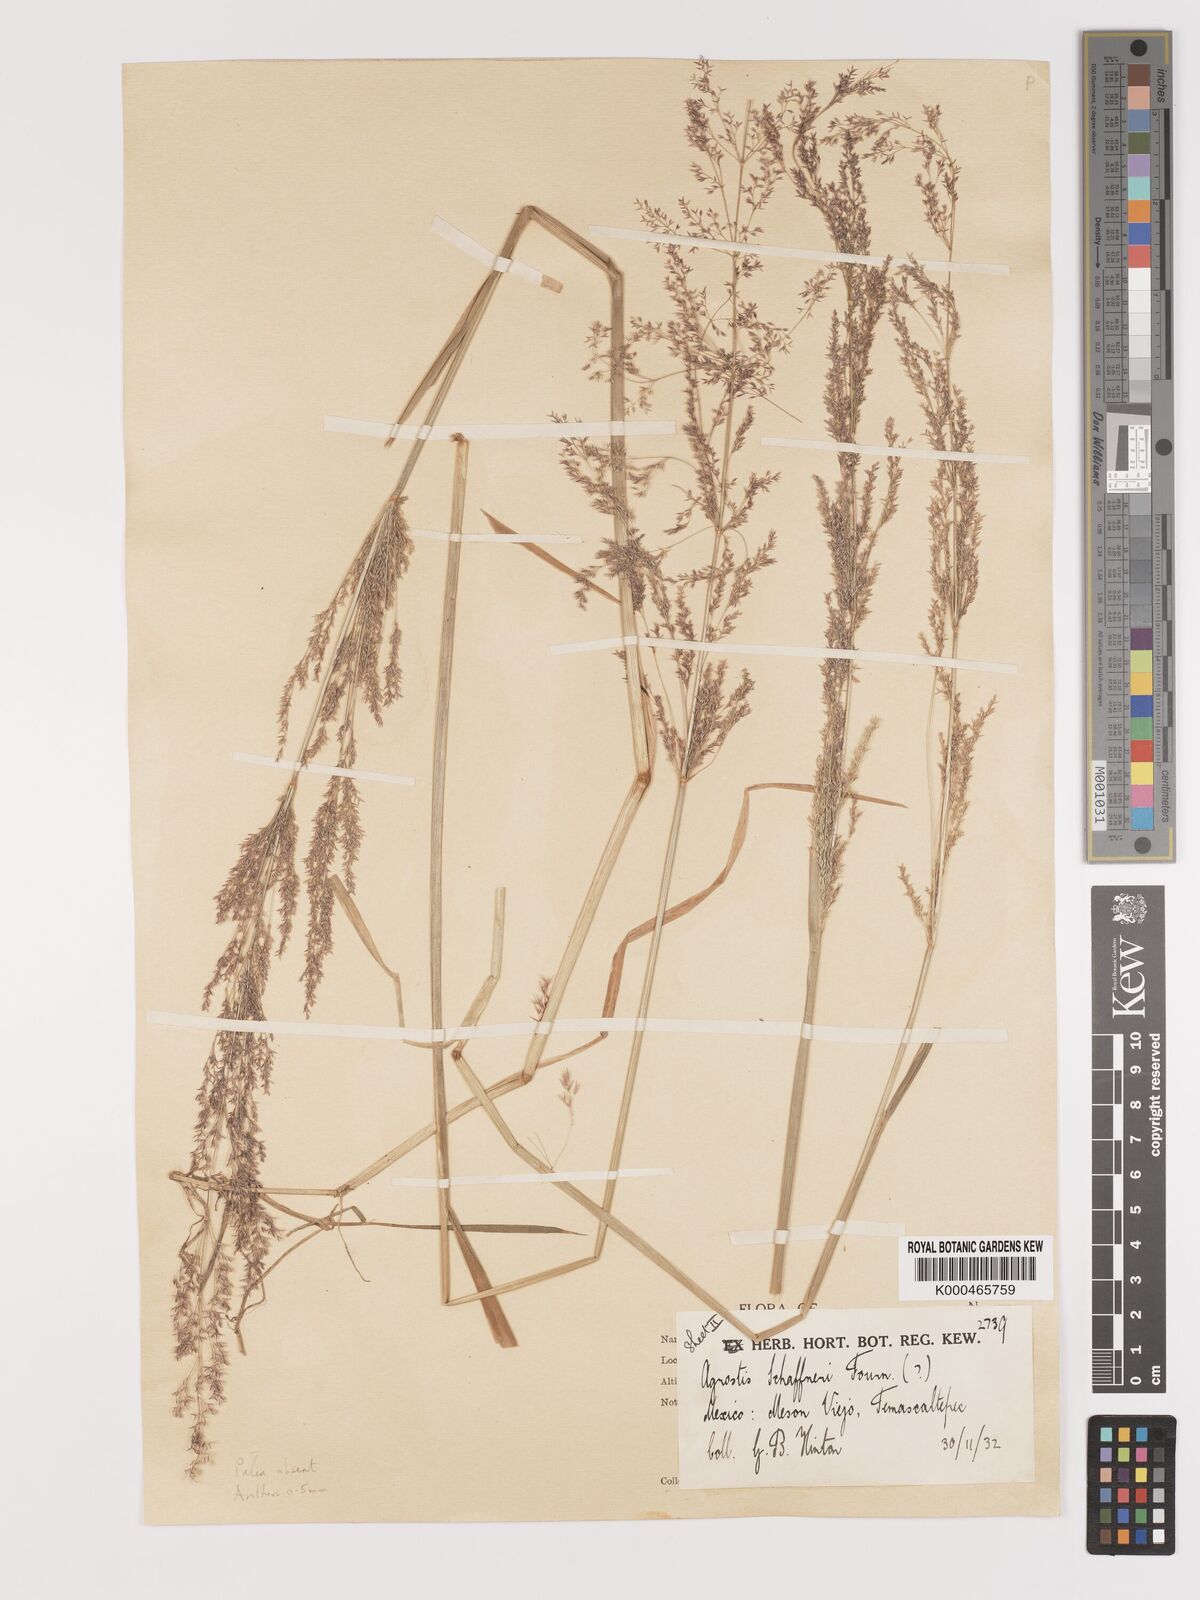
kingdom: Plantae
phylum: Tracheophyta
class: Liliopsida
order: Poales
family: Poaceae
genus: Agrostis
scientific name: Agrostis stolonifera
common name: Creeping bentgrass
